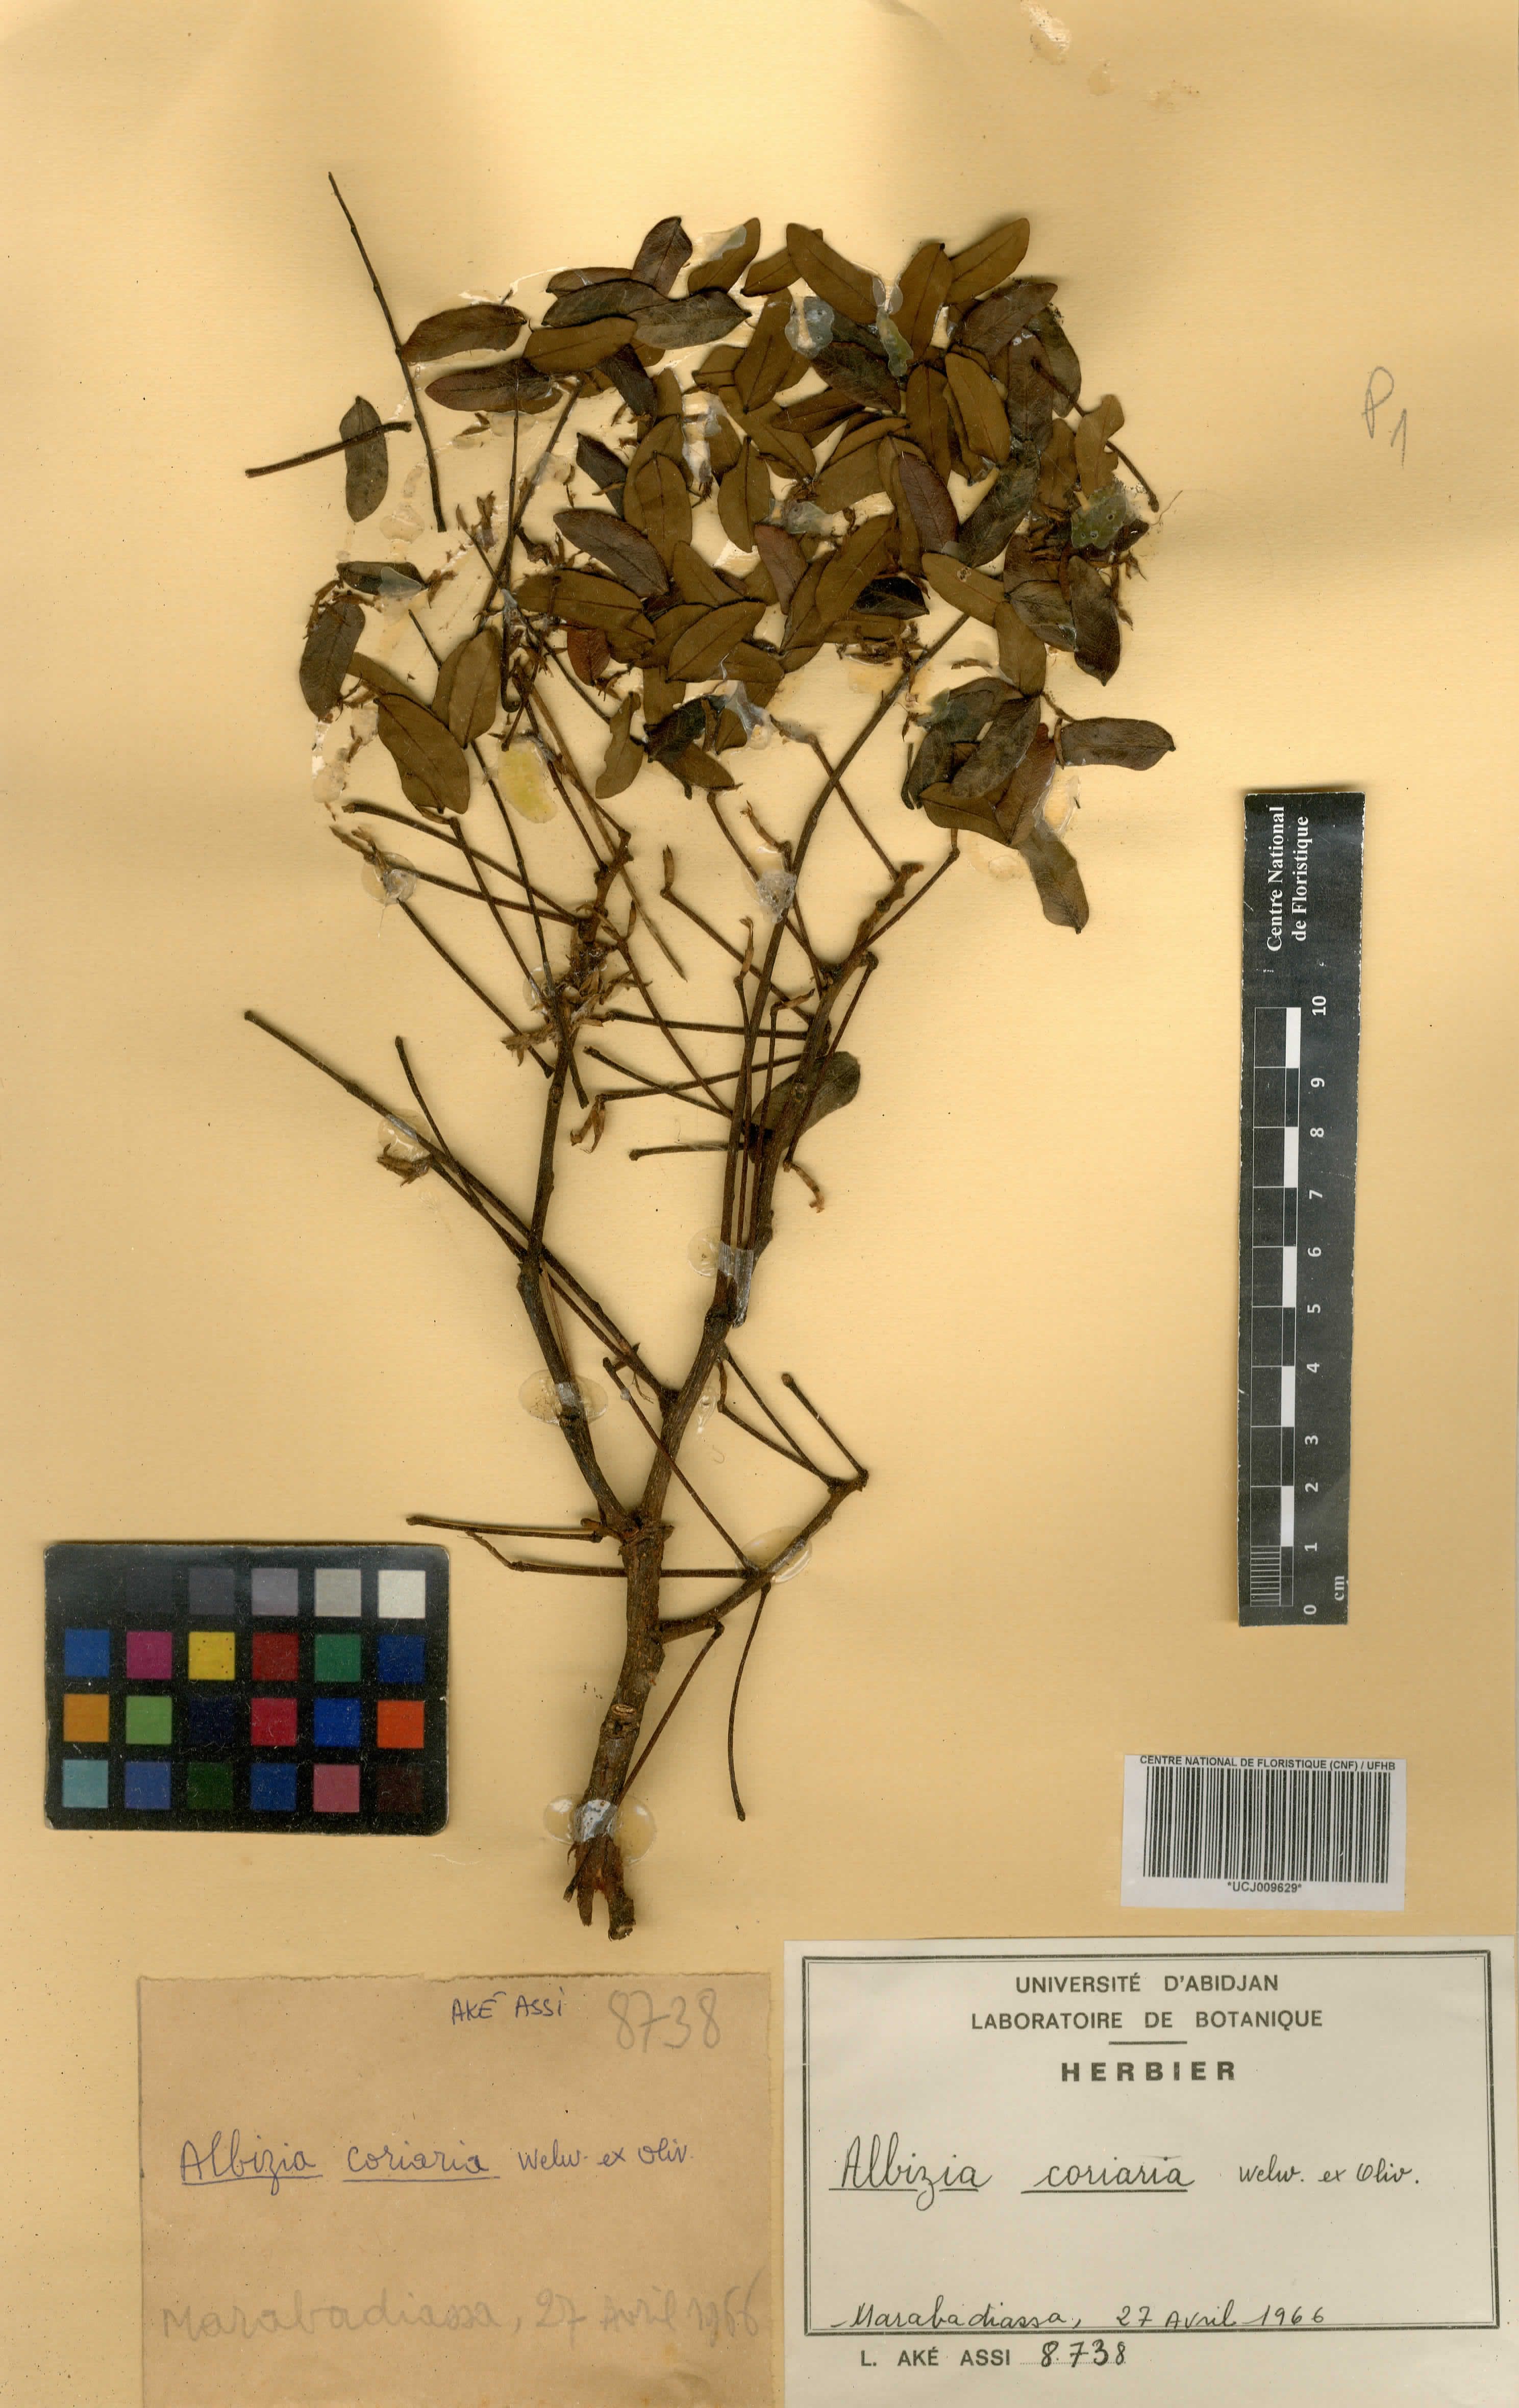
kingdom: Plantae
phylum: Tracheophyta
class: Magnoliopsida
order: Fabales
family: Fabaceae
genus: Albizia
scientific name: Albizia coriaria
